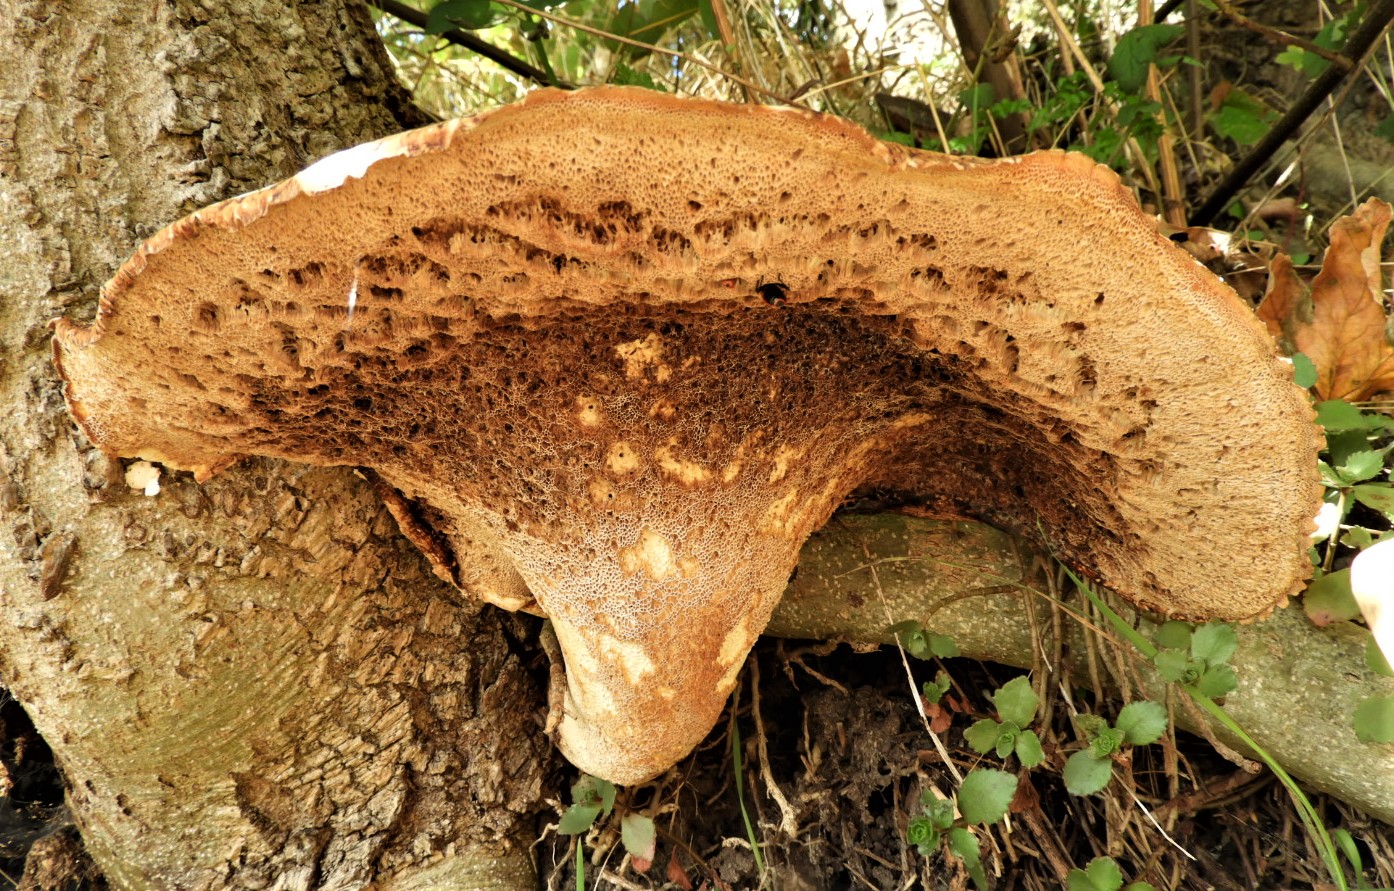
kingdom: Fungi
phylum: Basidiomycota
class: Agaricomycetes
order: Polyporales
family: Polyporaceae
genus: Cerioporus
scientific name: Cerioporus squamosus
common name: skællet stilkporesvamp
